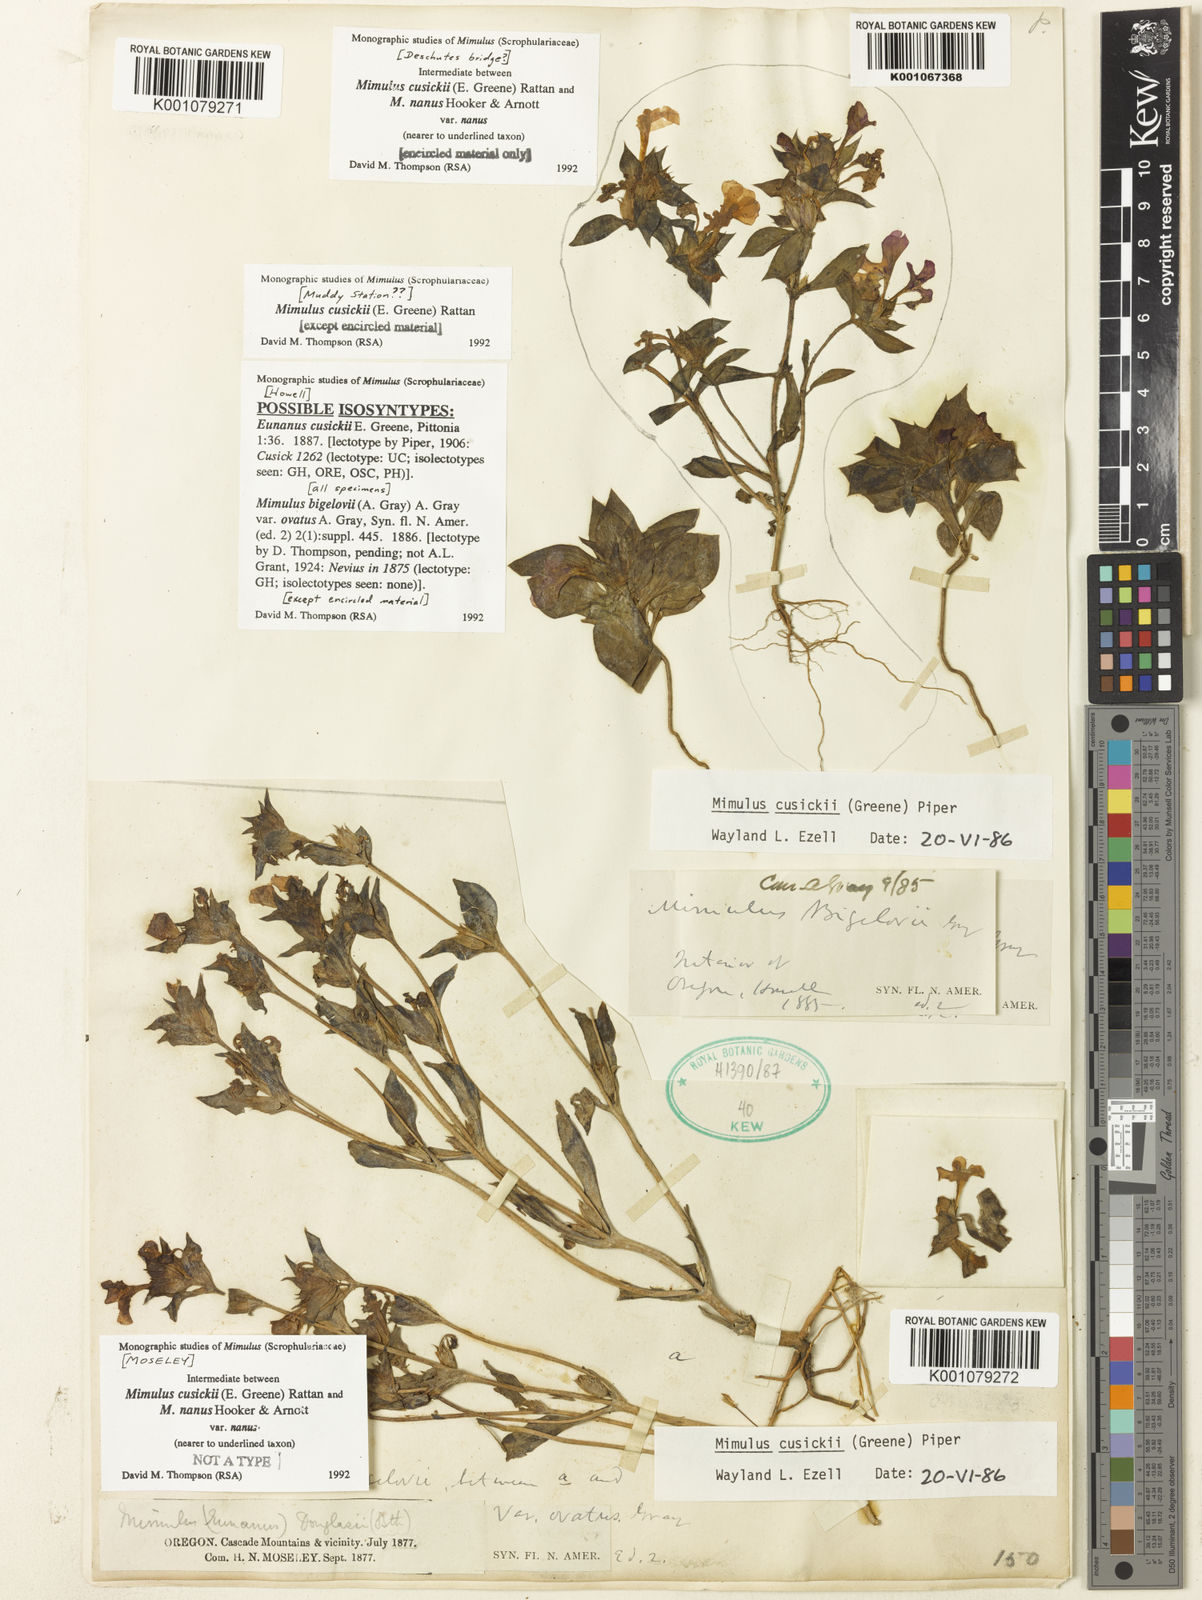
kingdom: Plantae
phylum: Tracheophyta
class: Magnoliopsida
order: Lamiales
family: Phrymaceae
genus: Diplacus
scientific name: Diplacus cusickii
